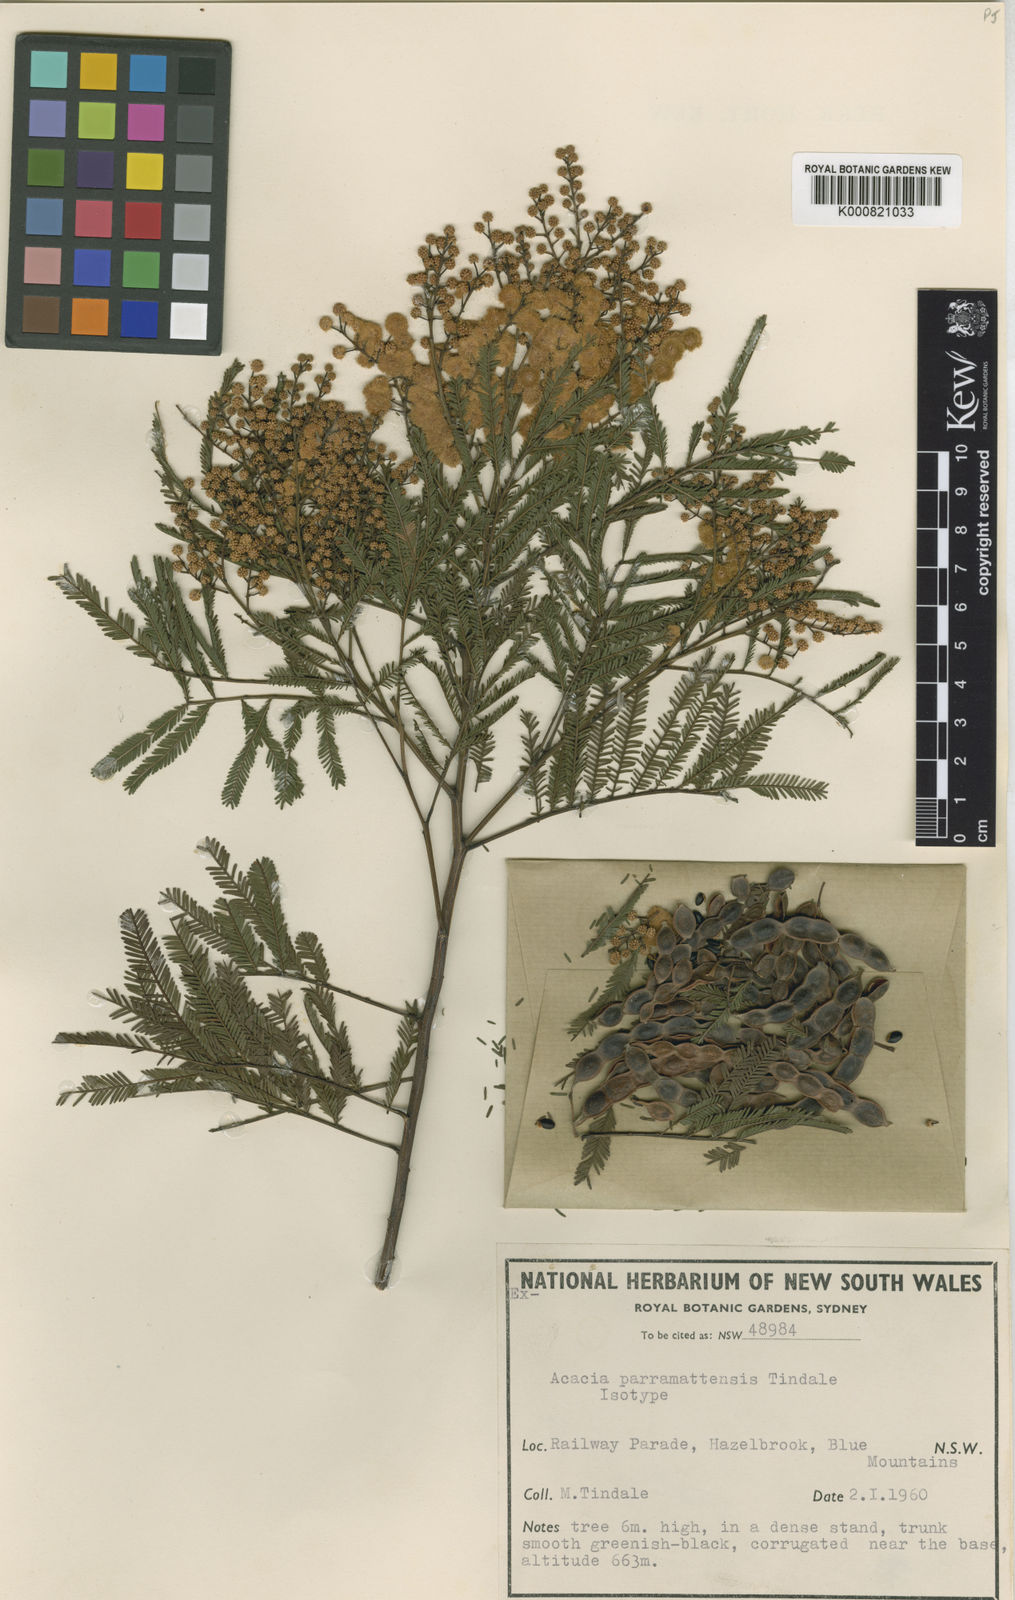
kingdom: Plantae
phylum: Tracheophyta
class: Magnoliopsida
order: Fabales
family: Fabaceae
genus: Acacia
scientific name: Acacia parramattensis
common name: Sydney green wattle
